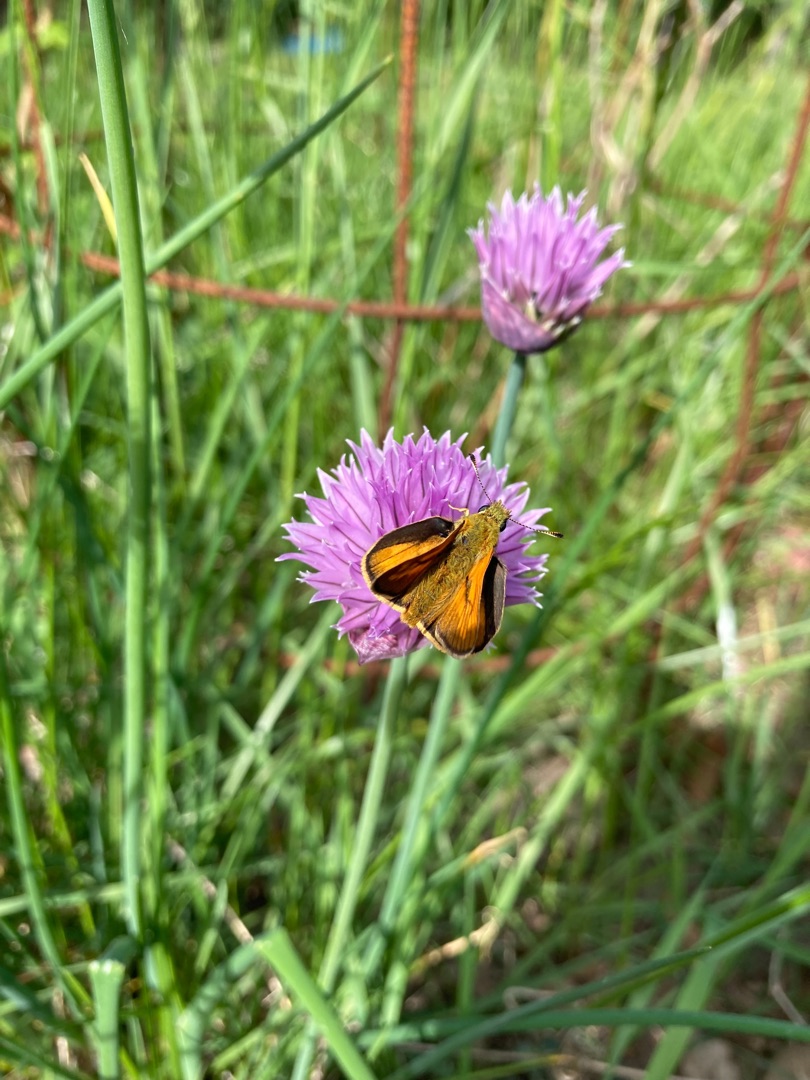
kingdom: Animalia
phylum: Arthropoda
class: Insecta
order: Lepidoptera
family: Hesperiidae
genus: Ochlodes
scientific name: Ochlodes venata
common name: Stor bredpande
